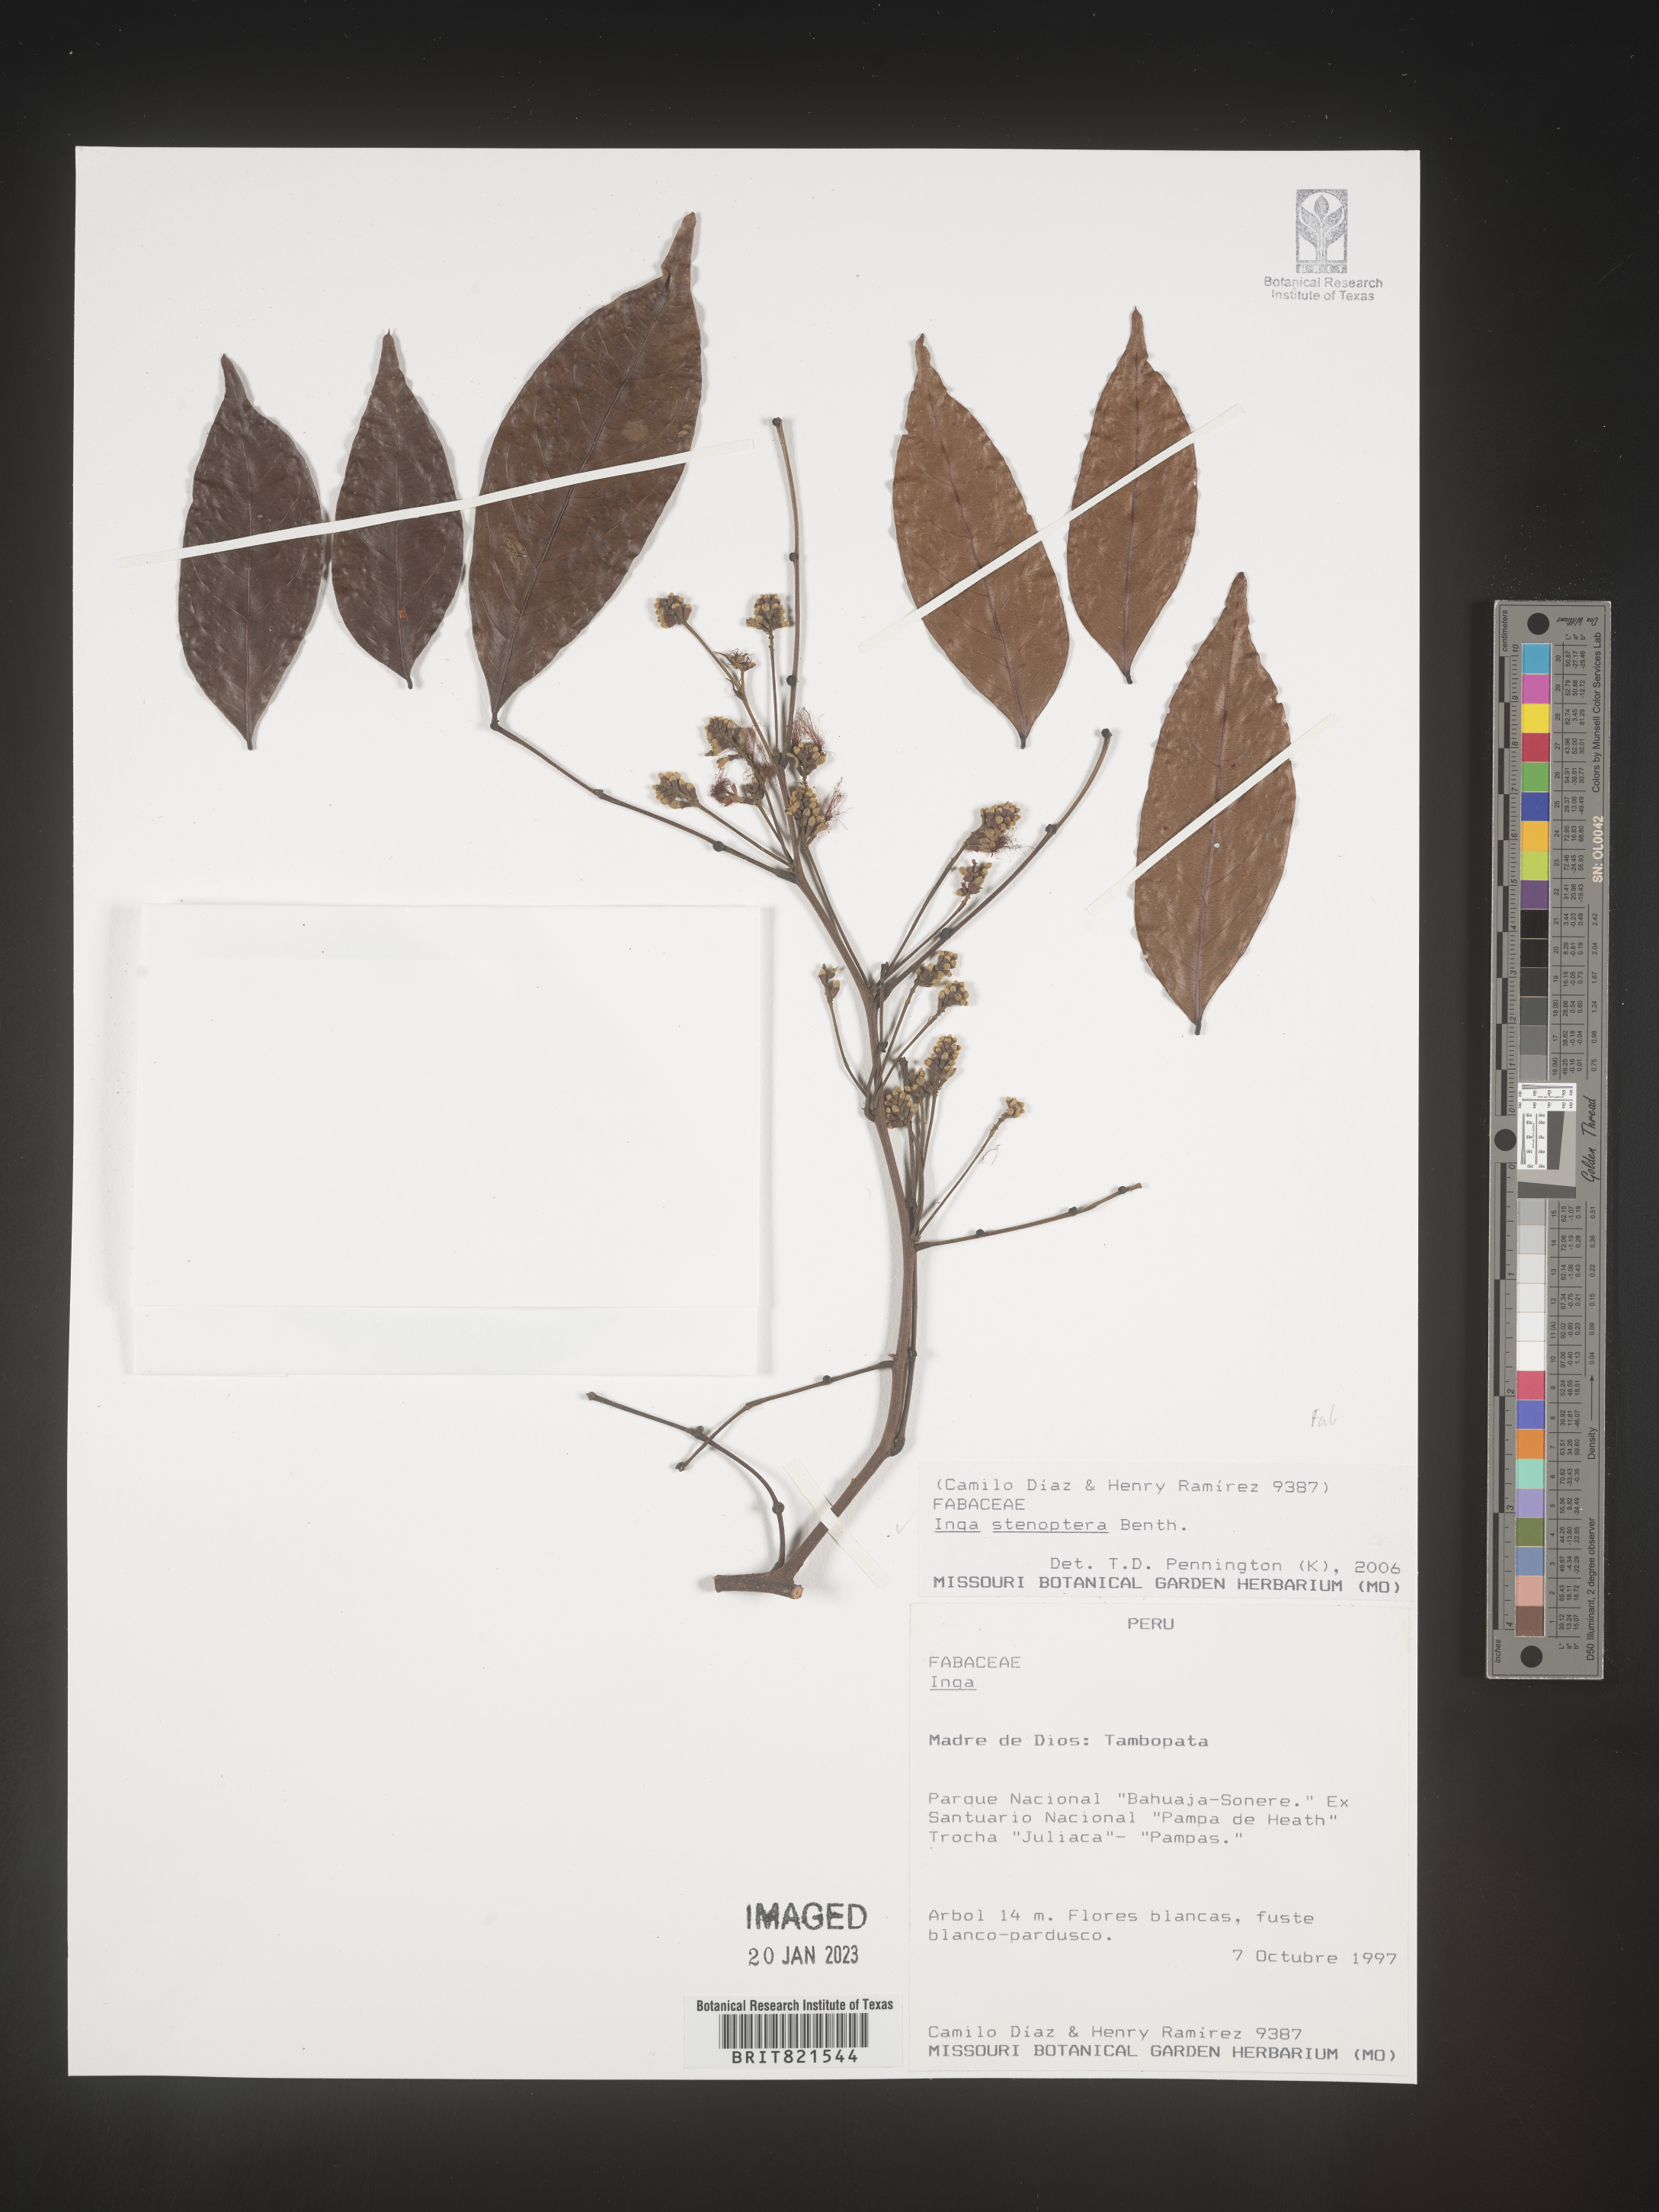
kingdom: Plantae
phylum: Tracheophyta
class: Magnoliopsida
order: Fabales
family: Fabaceae
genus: Inga
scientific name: Inga
